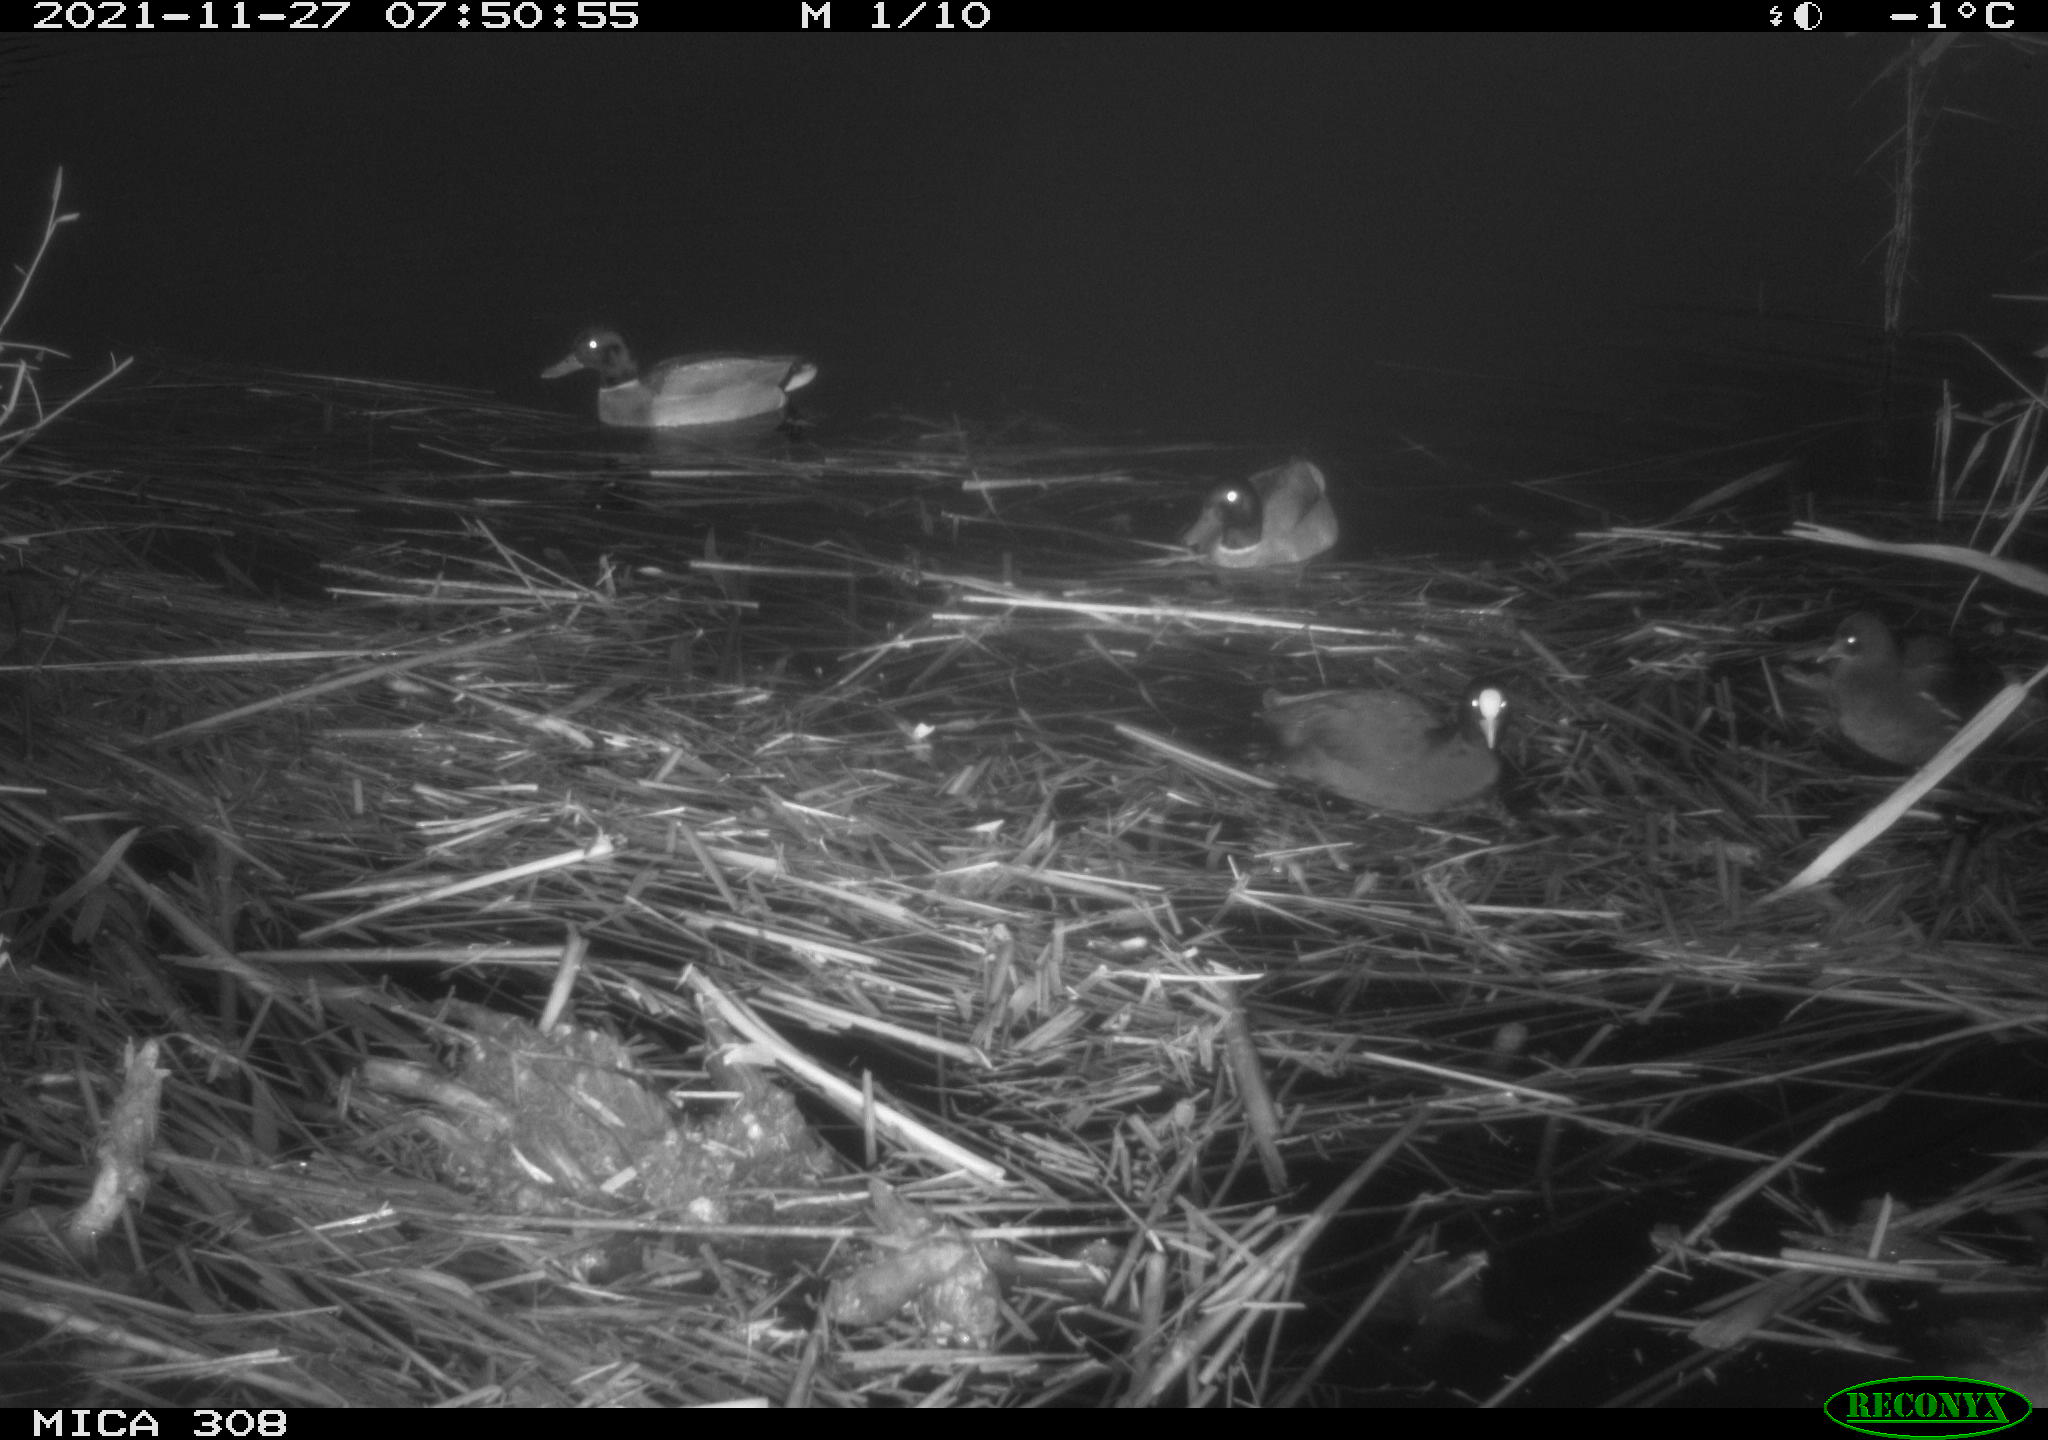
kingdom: Animalia
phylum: Chordata
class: Aves
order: Anseriformes
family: Anatidae
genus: Anas
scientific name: Anas platyrhynchos
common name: Mallard
